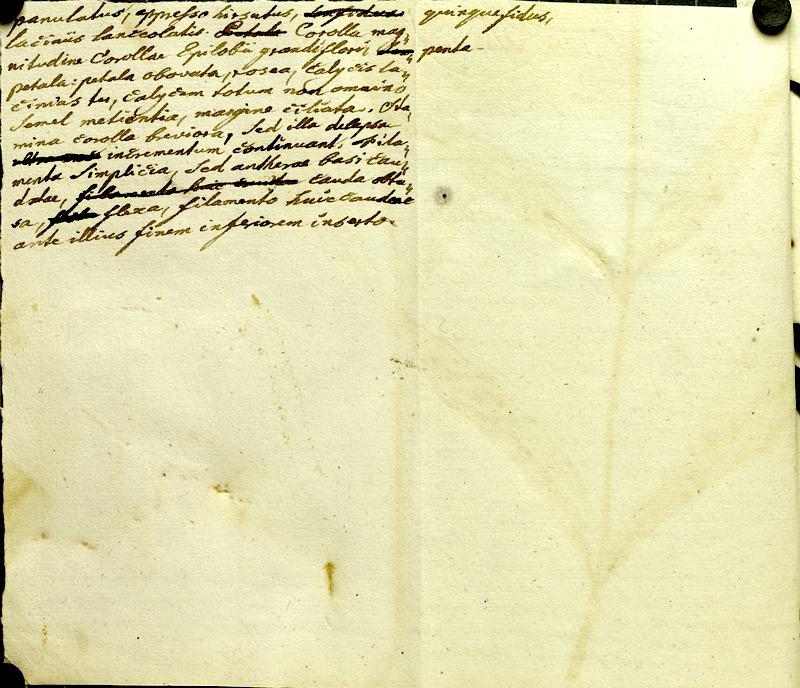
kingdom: Plantae
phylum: Tracheophyta
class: Magnoliopsida
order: Myrtales
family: Melastomataceae
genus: Chaetogastra
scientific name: Chaetogastra gracilis
